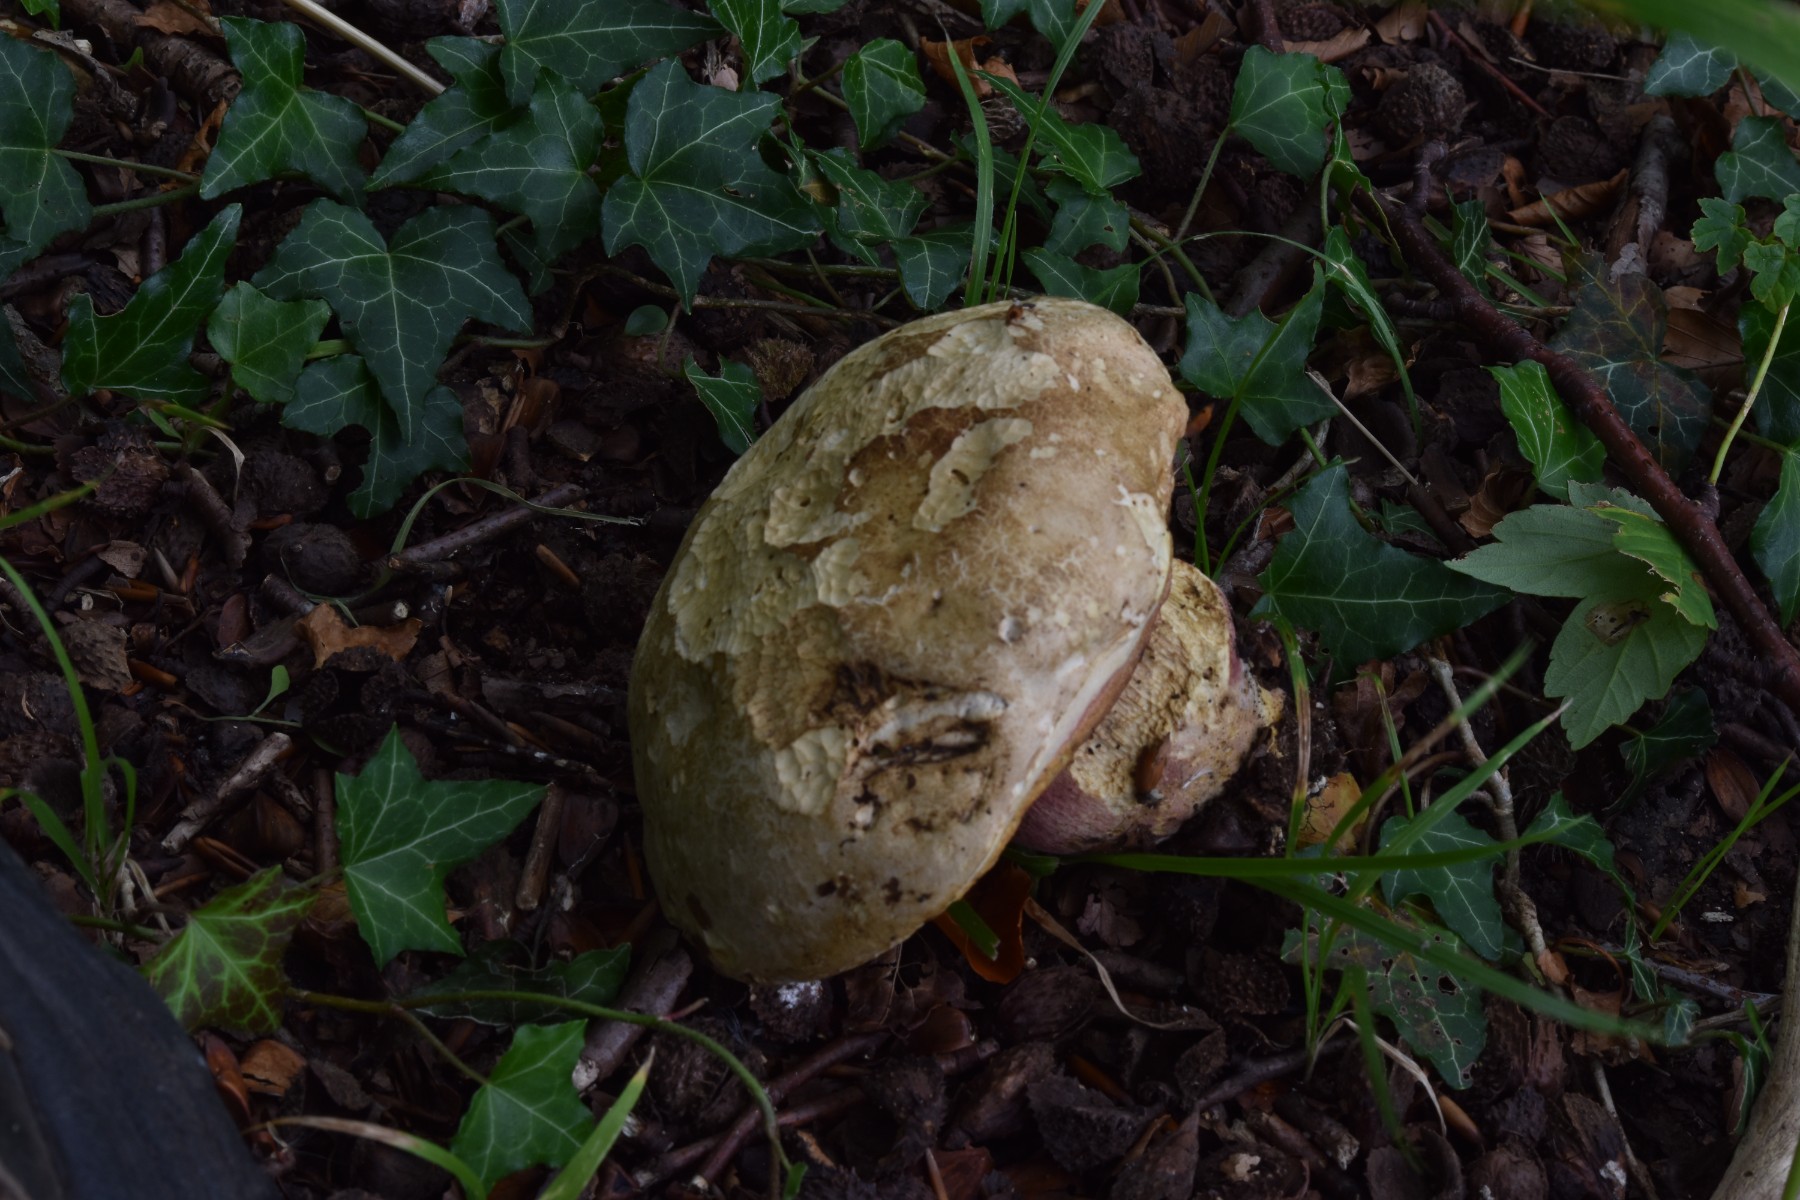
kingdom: Fungi
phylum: Basidiomycota
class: Agaricomycetes
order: Boletales
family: Boletaceae
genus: Rubroboletus
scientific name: Rubroboletus satanas
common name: Satans rørhat
